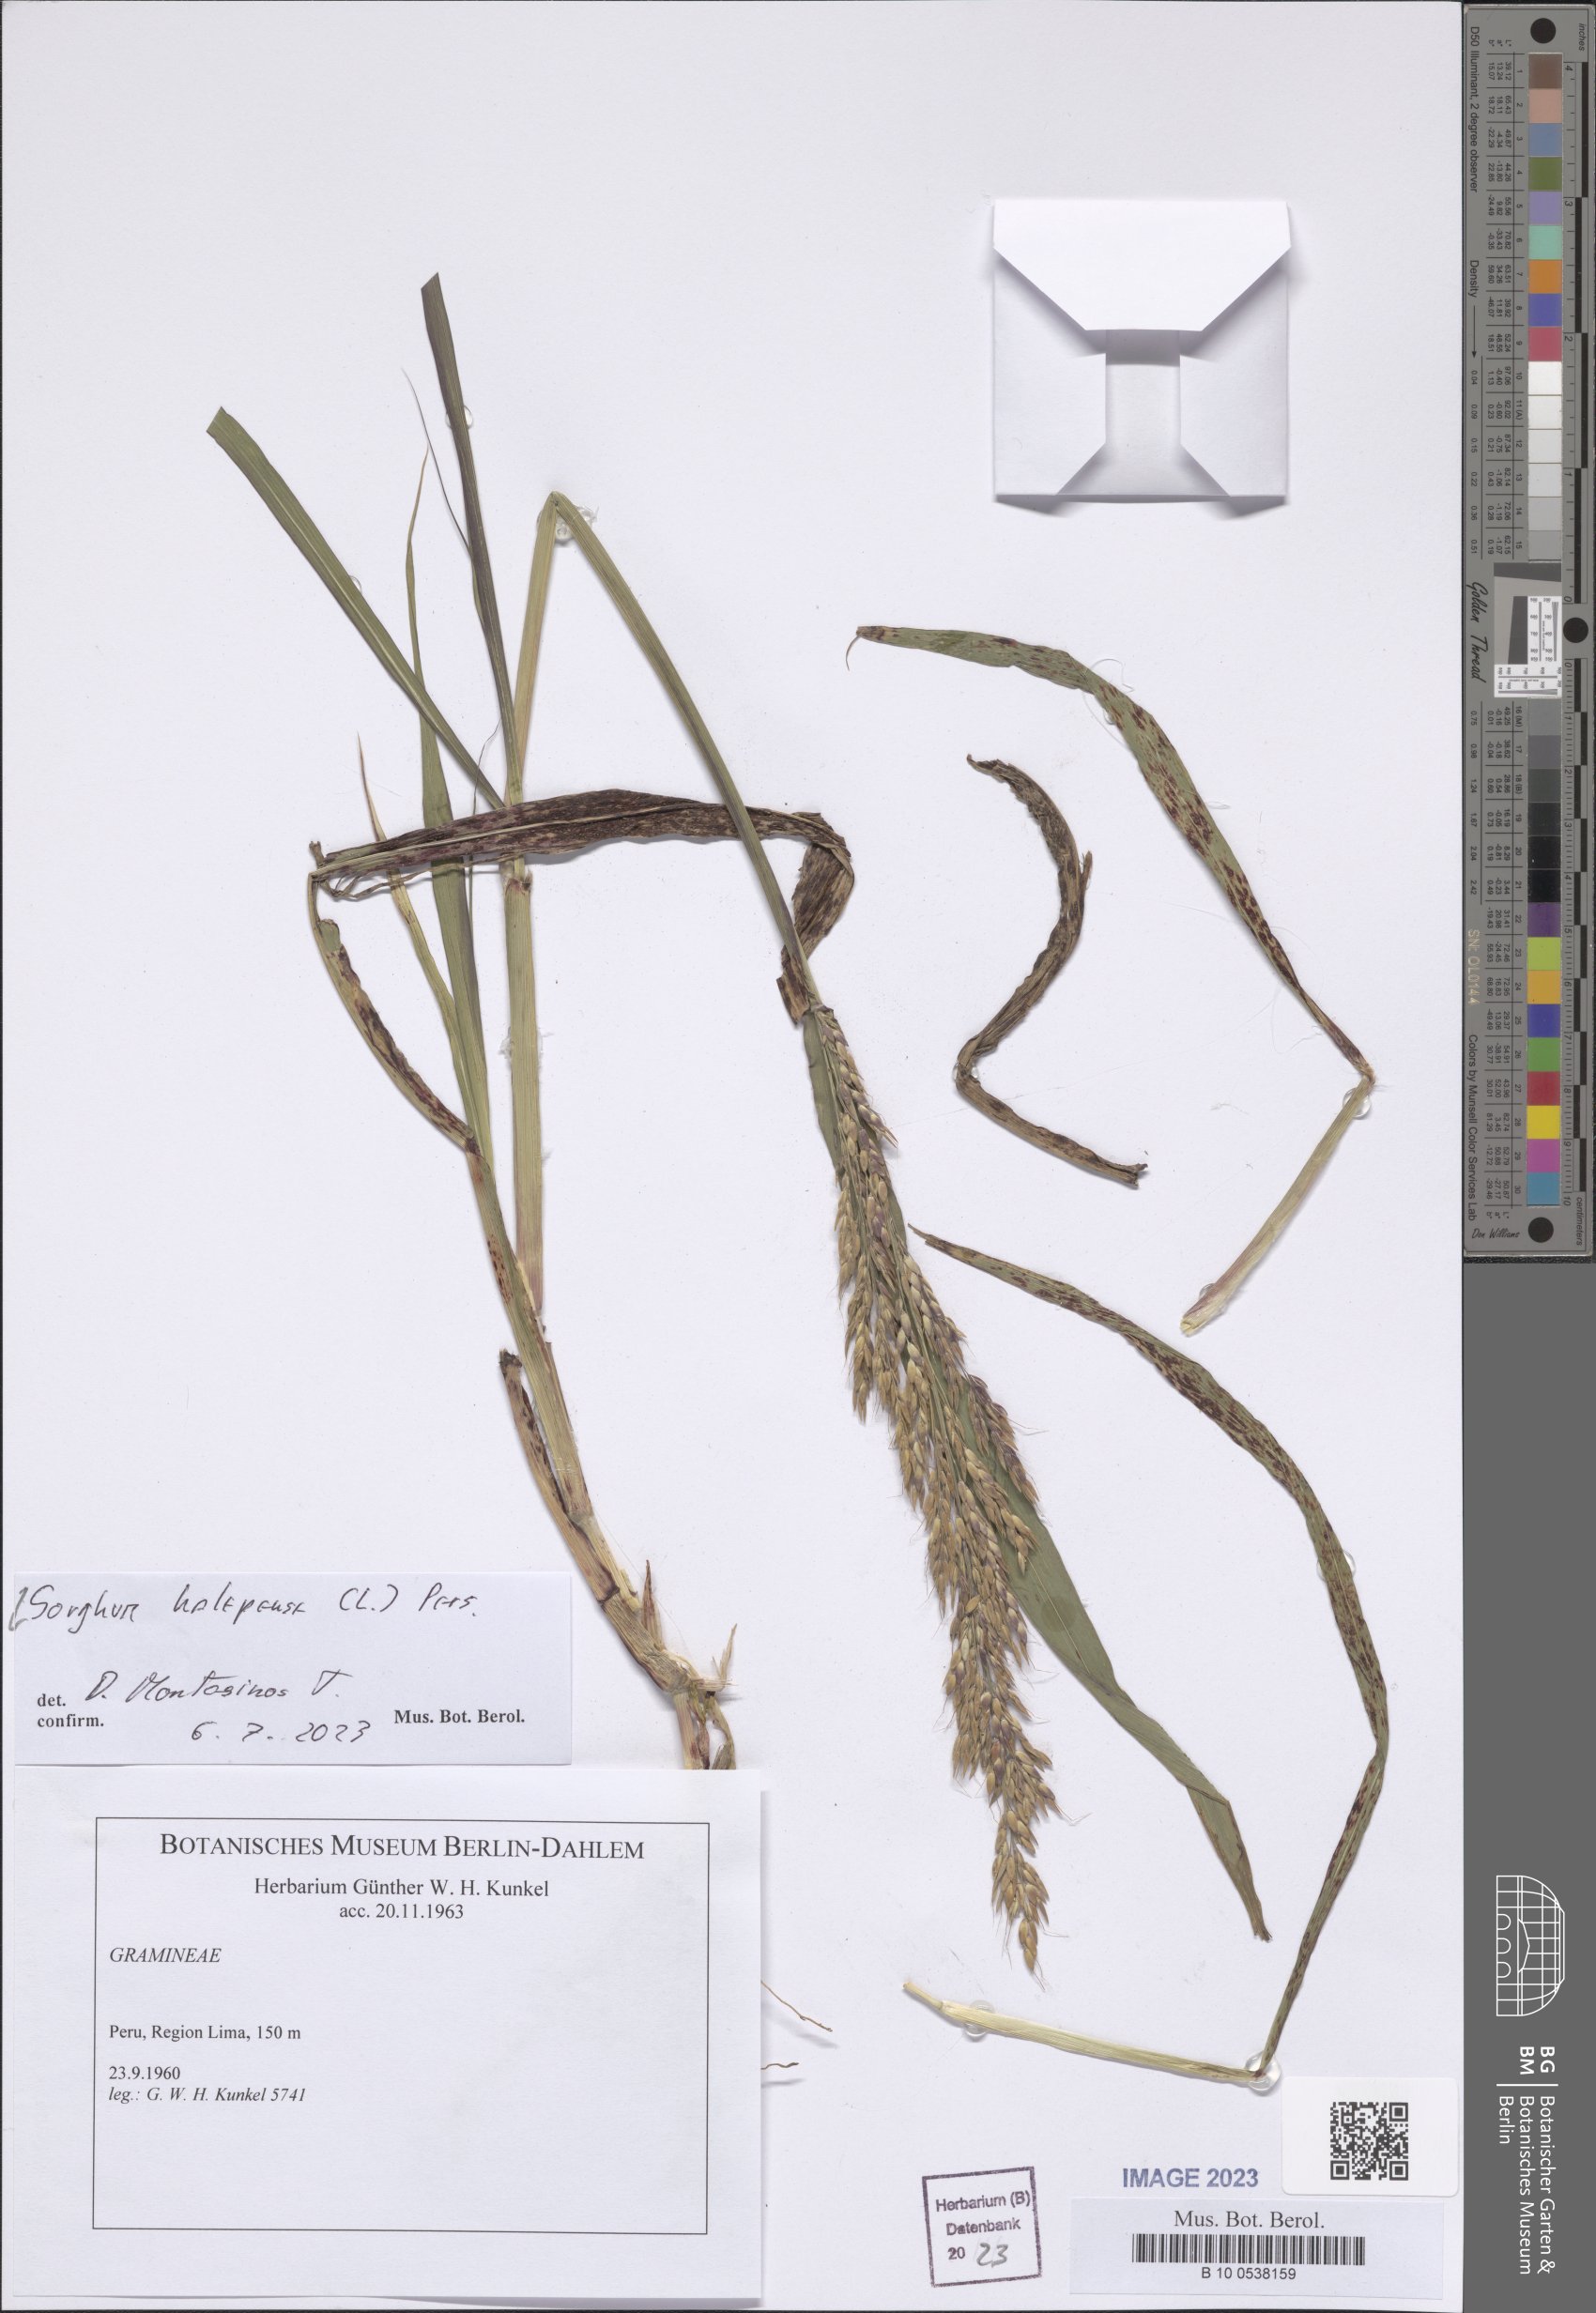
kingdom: Plantae
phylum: Tracheophyta
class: Liliopsida
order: Poales
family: Poaceae
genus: Sorghum
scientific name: Sorghum halepense
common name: Johnson-grass
